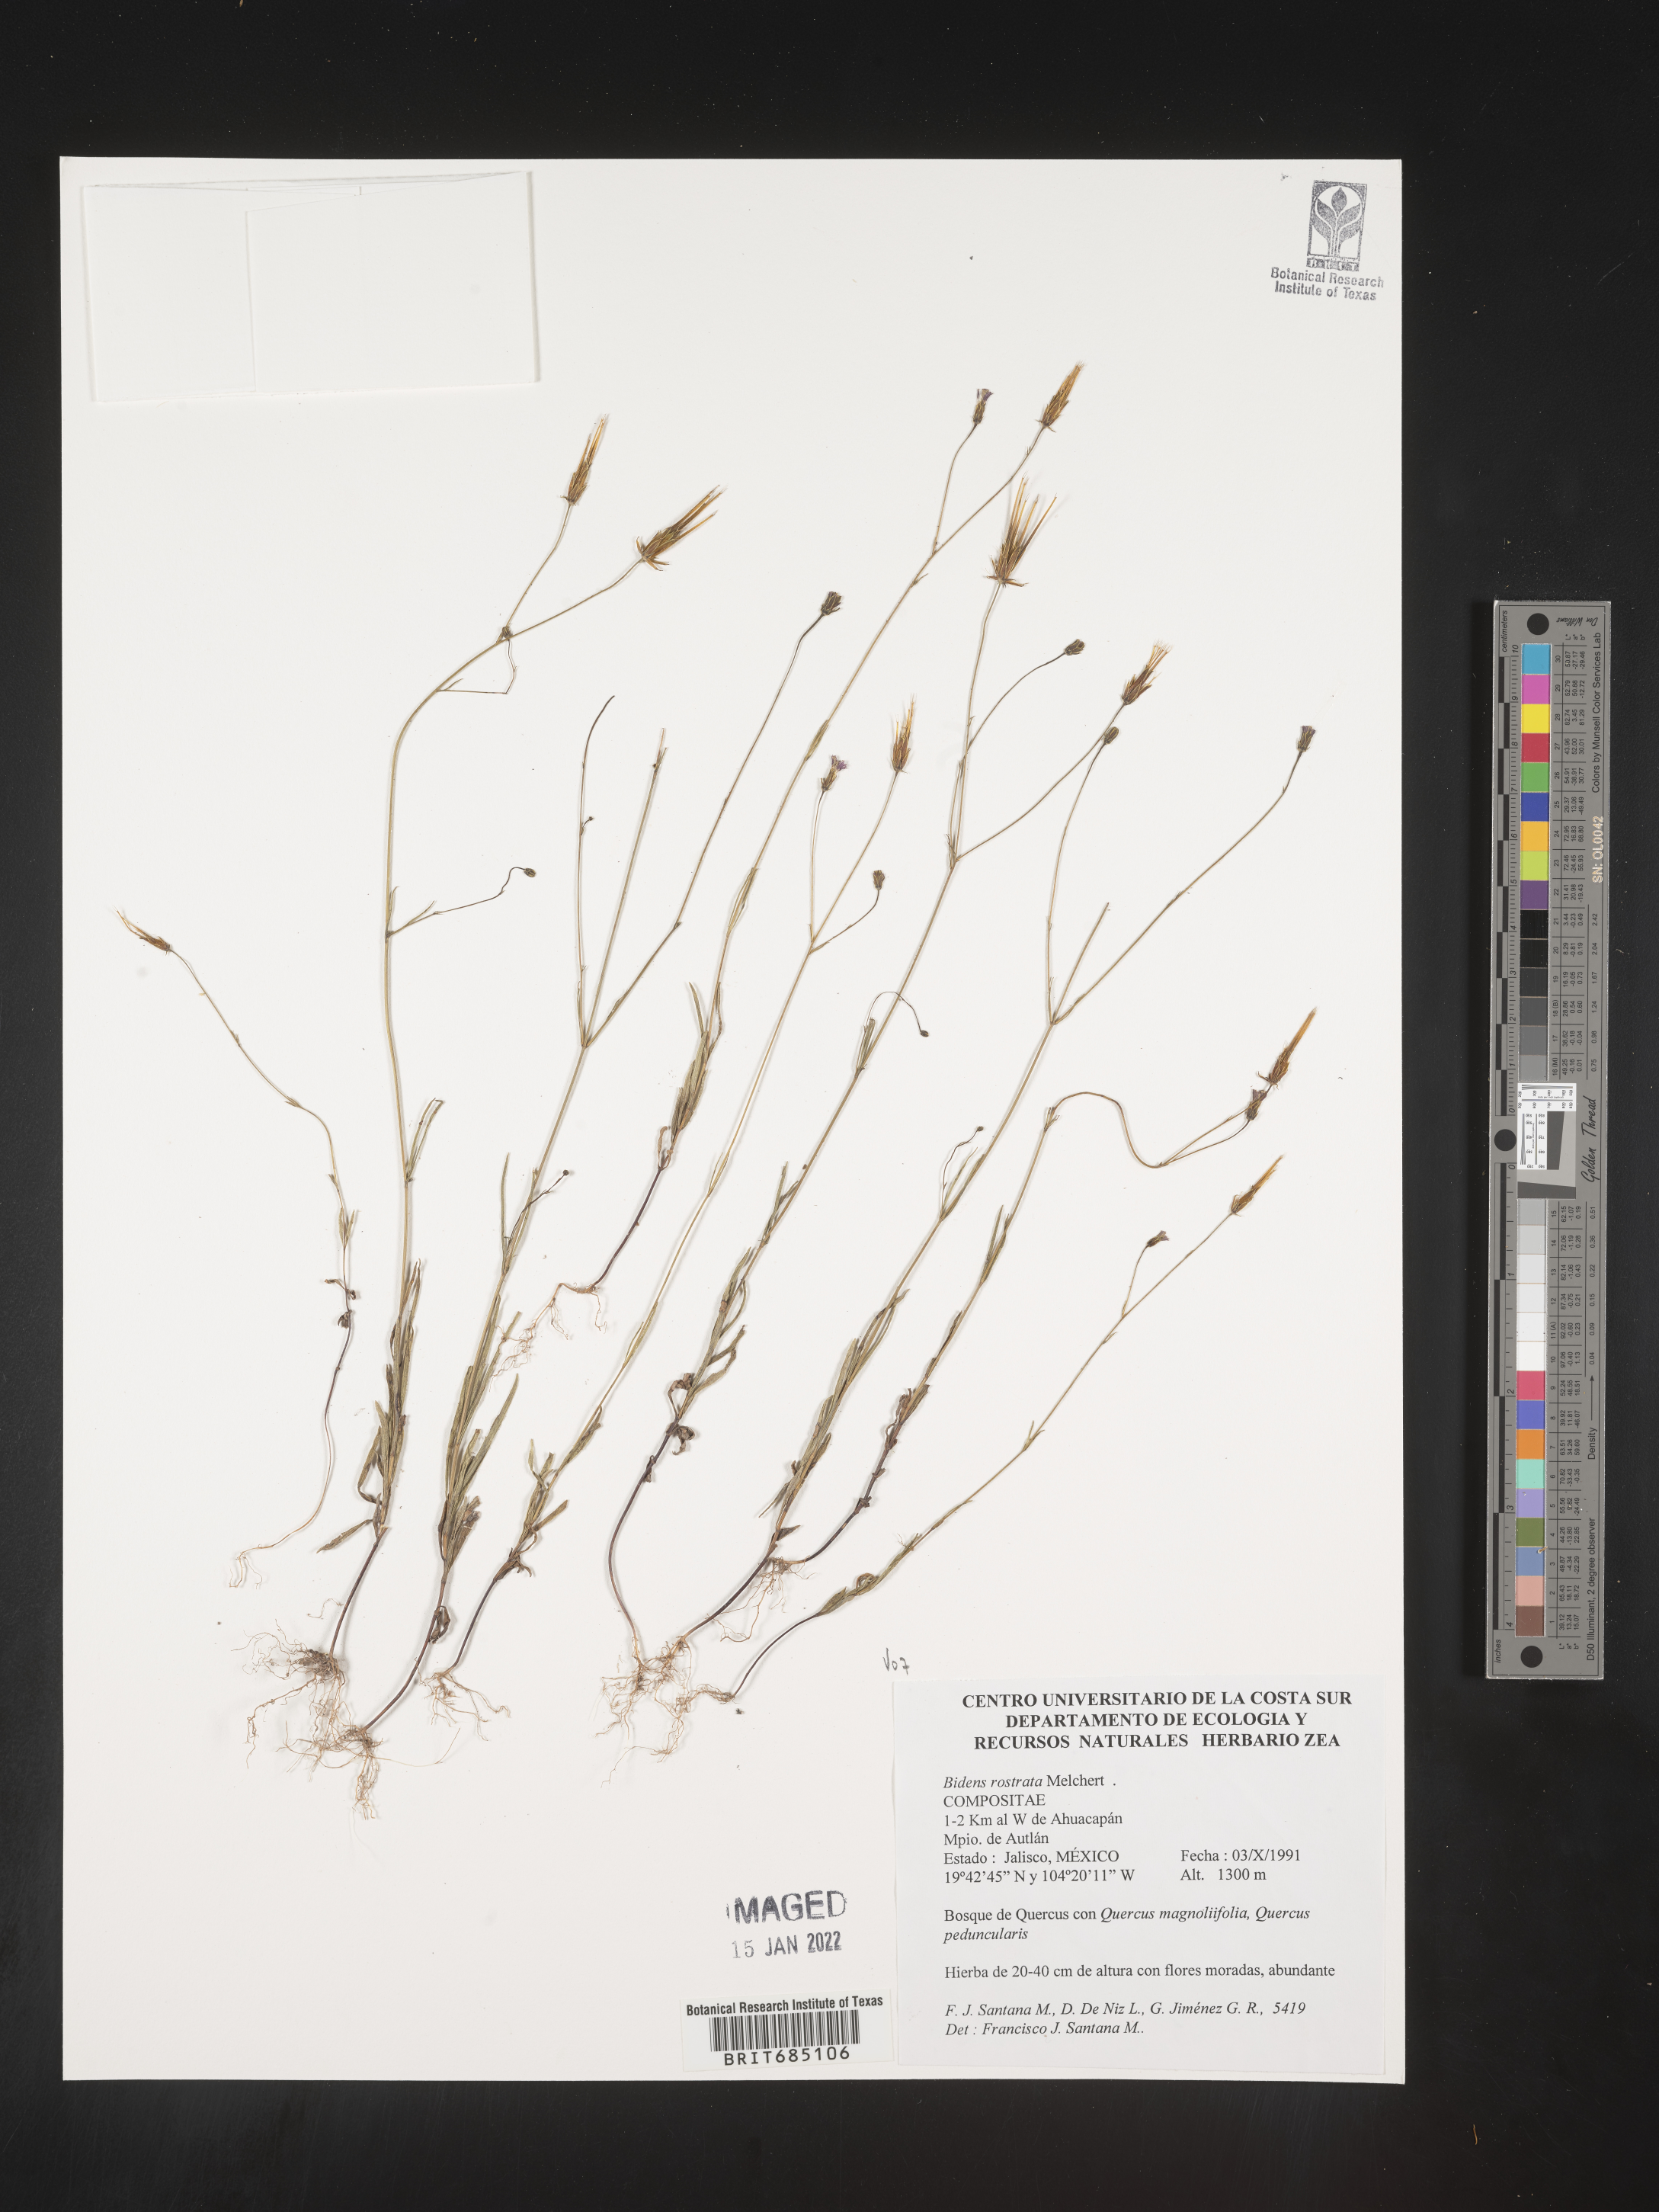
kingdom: Plantae
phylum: Tracheophyta
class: Magnoliopsida
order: Asterales
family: Asteraceae
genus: Bidens
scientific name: Bidens
